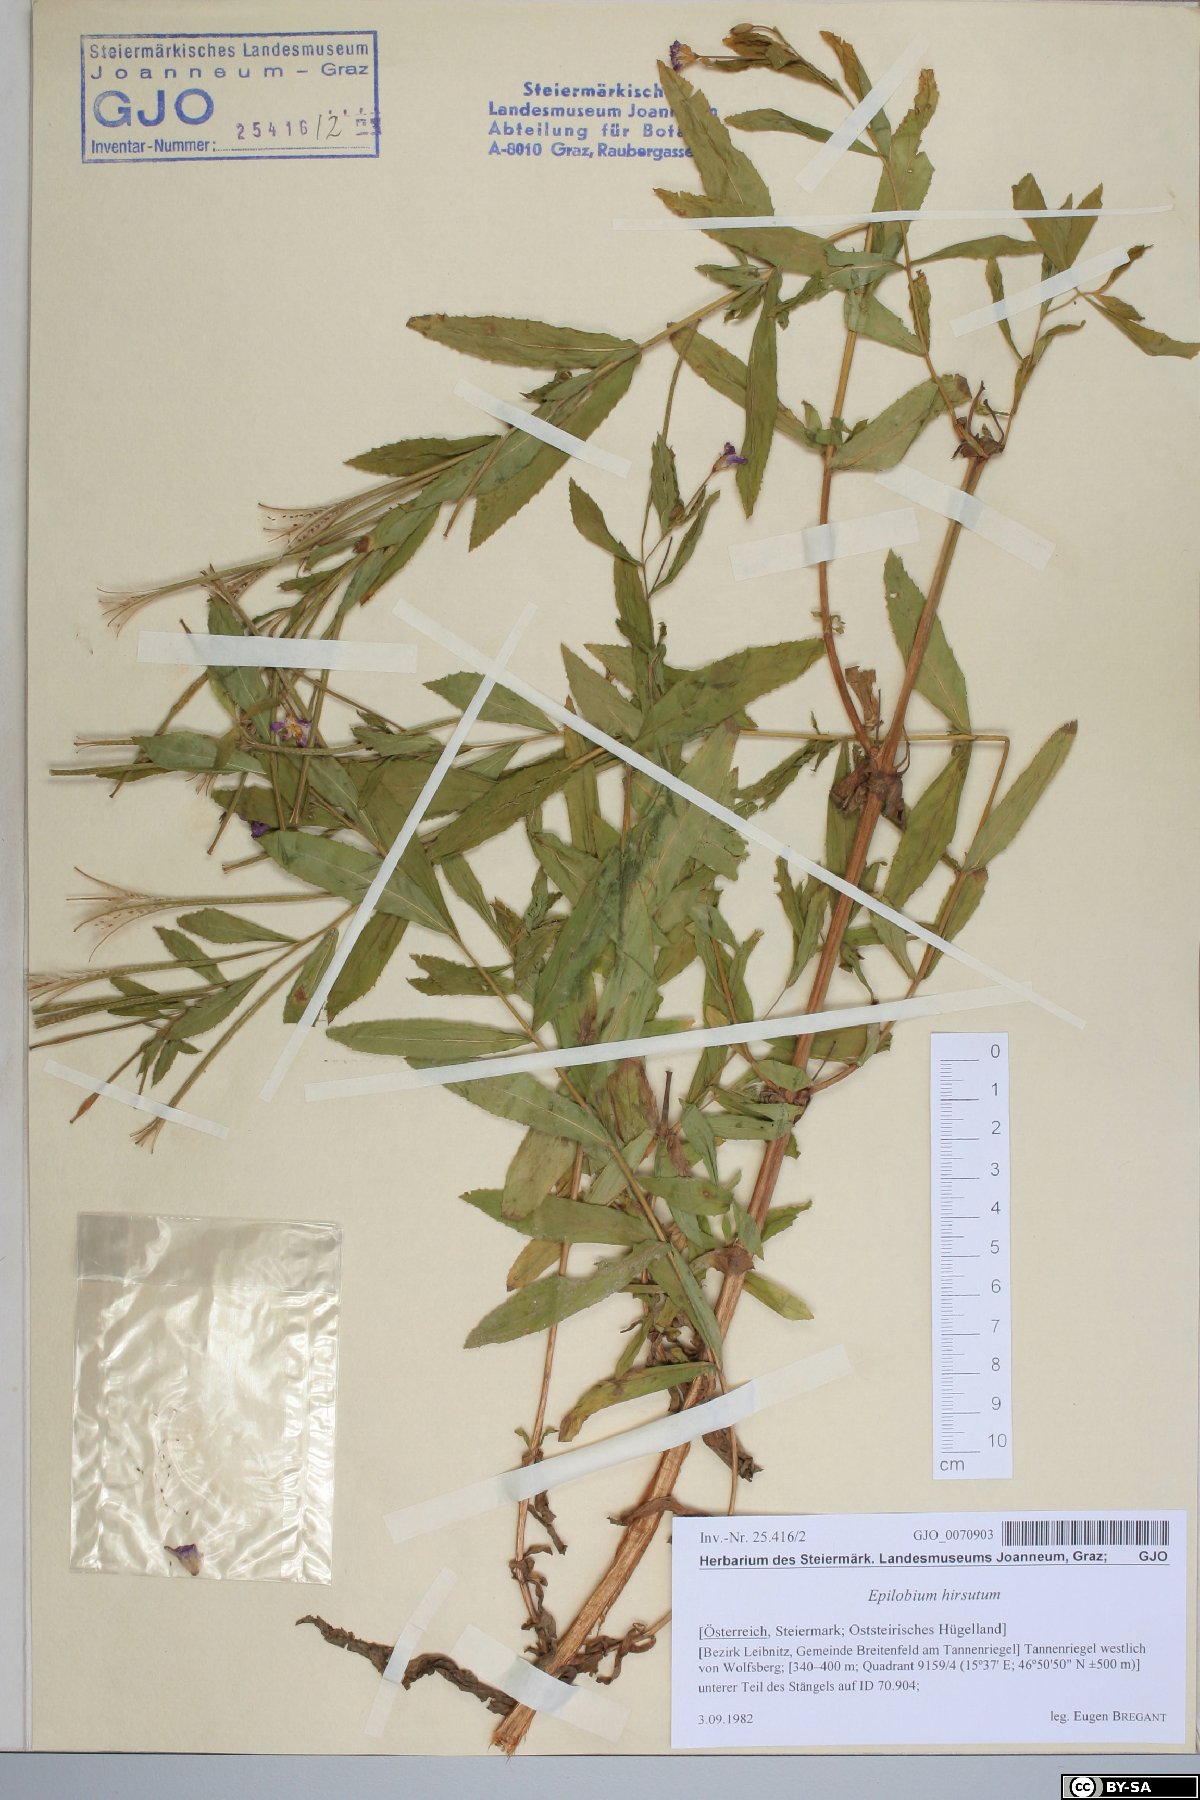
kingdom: Plantae
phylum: Tracheophyta
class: Magnoliopsida
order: Myrtales
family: Onagraceae
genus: Epilobium
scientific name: Epilobium hirsutum
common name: Great willowherb
